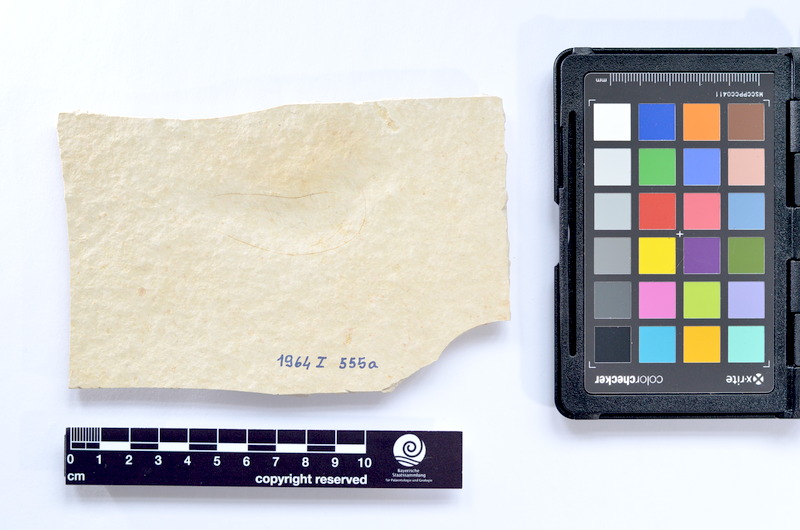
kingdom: Animalia
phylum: Chordata
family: Ascalaboidae
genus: Tharsis
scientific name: Tharsis dubius
